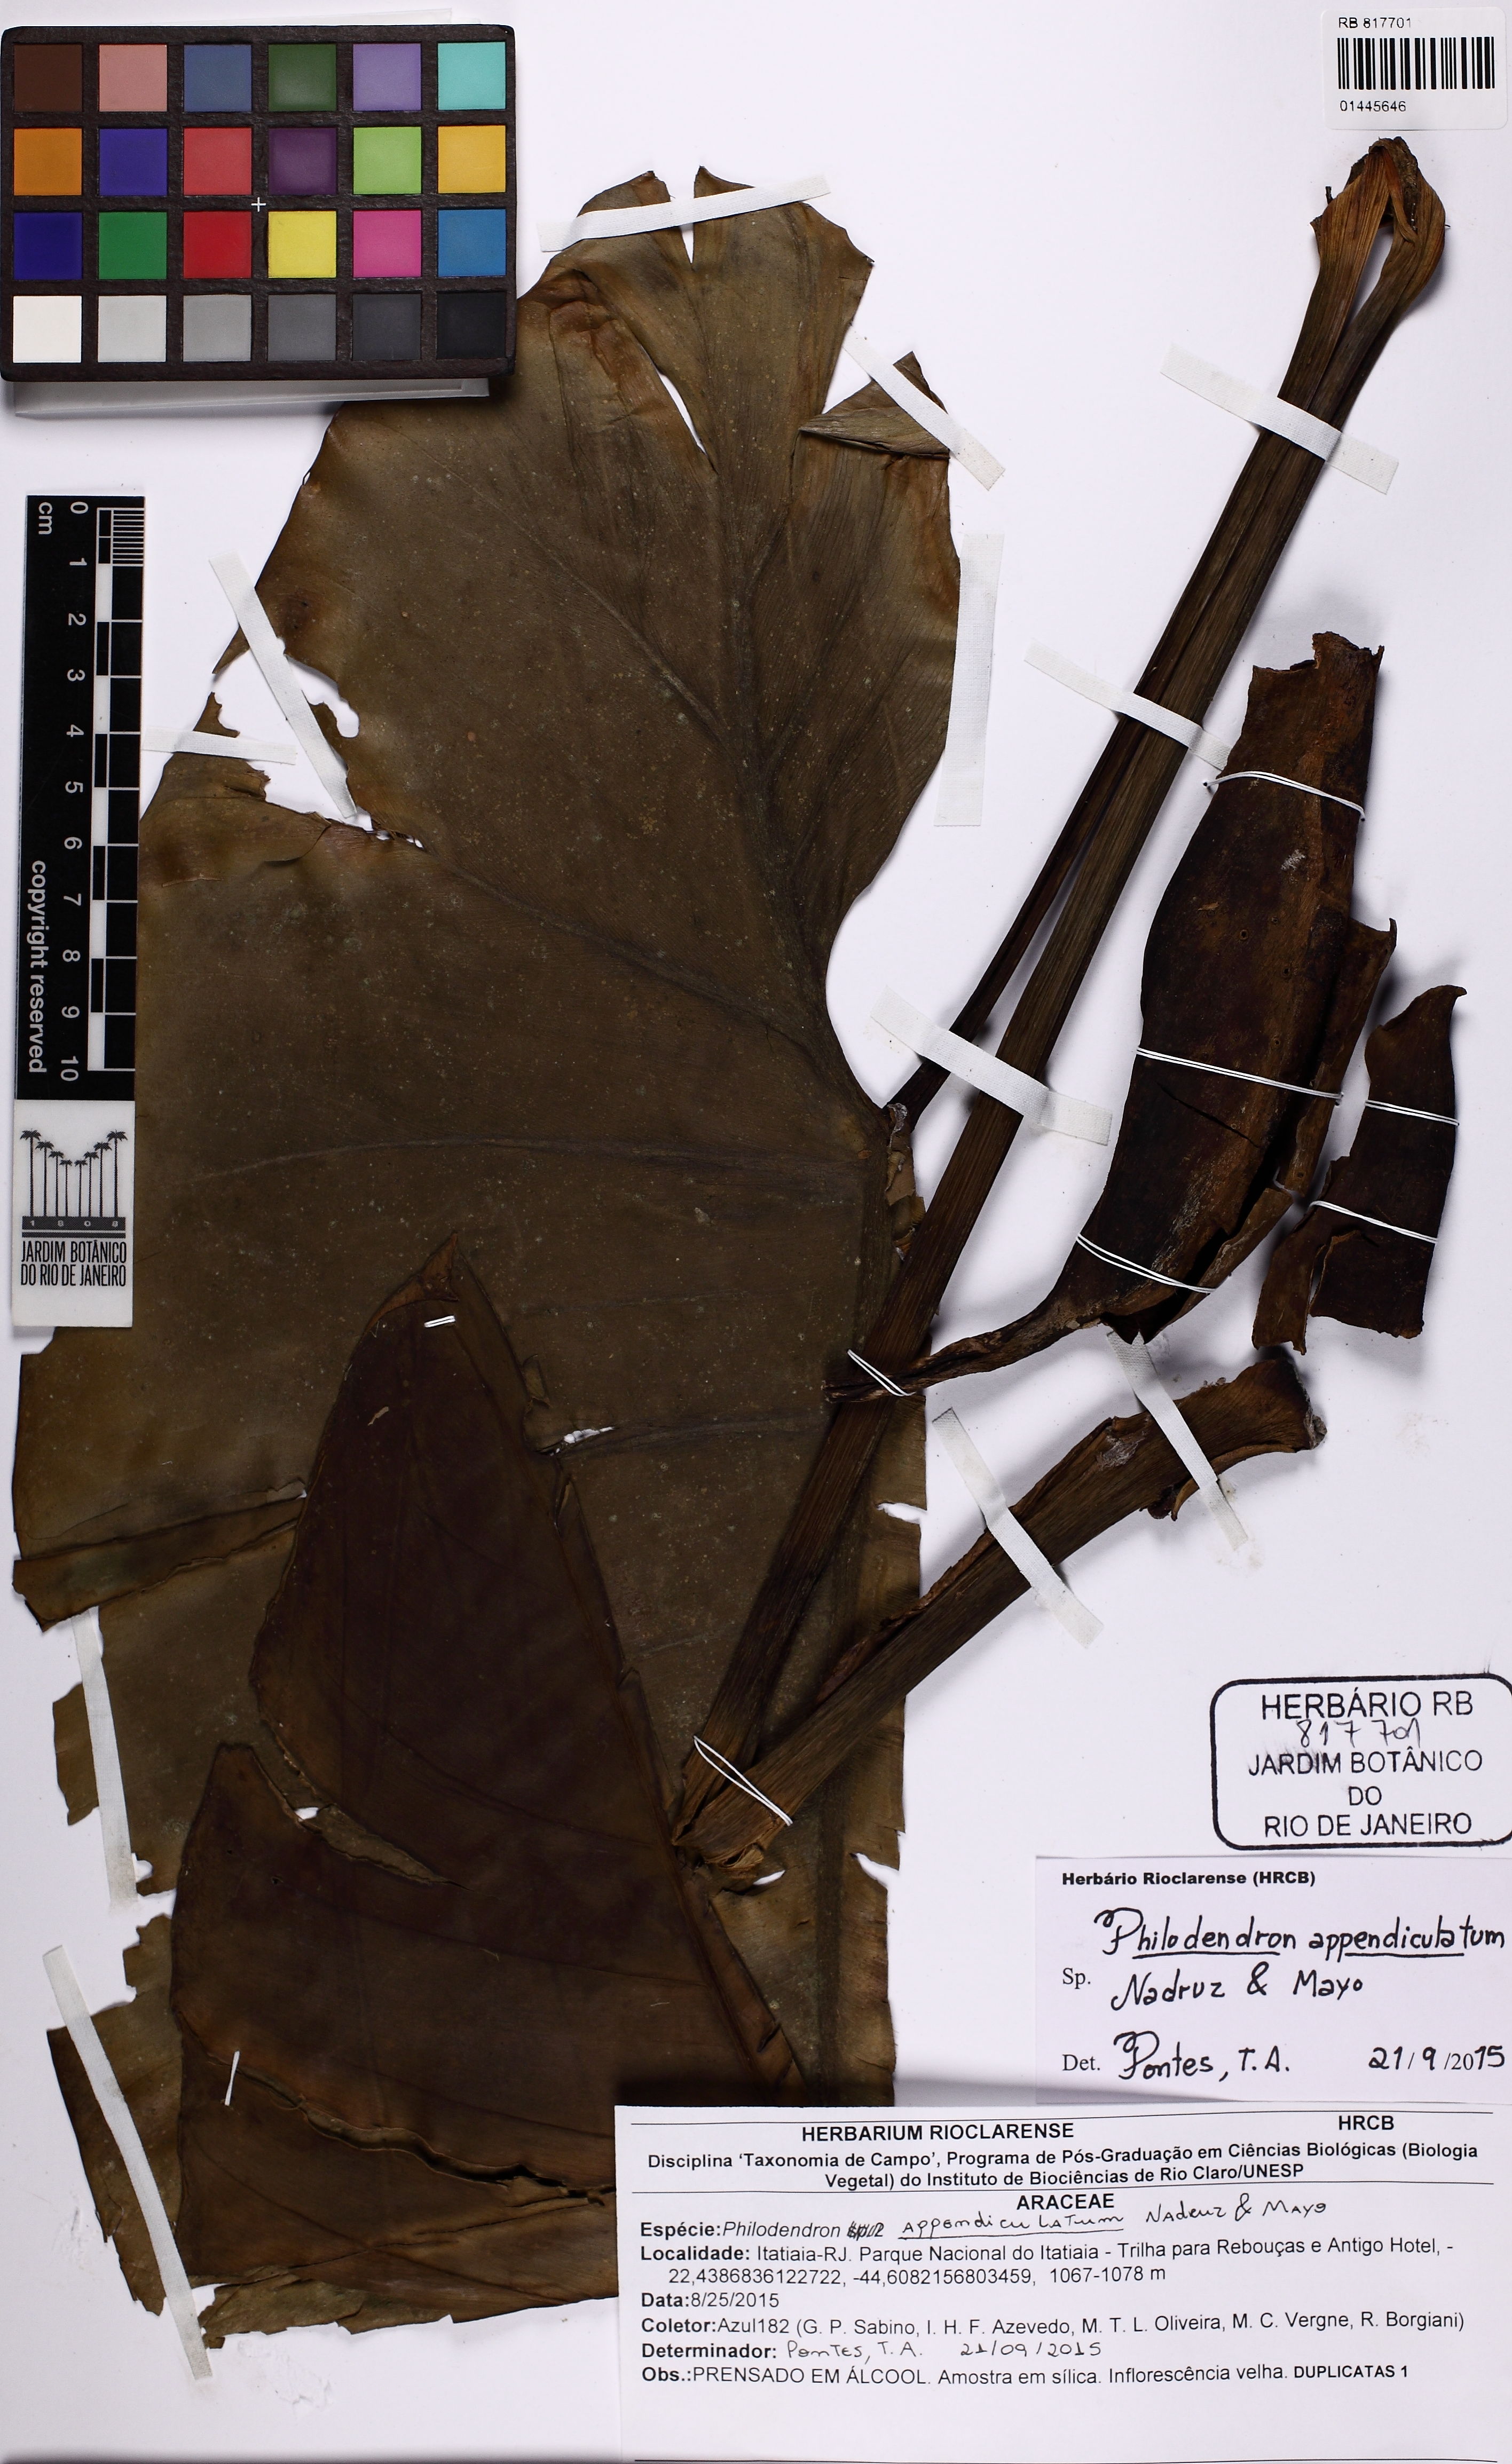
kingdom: Plantae
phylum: Tracheophyta
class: Liliopsida
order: Alismatales
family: Araceae
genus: Philodendron
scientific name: Philodendron appendiculatum
